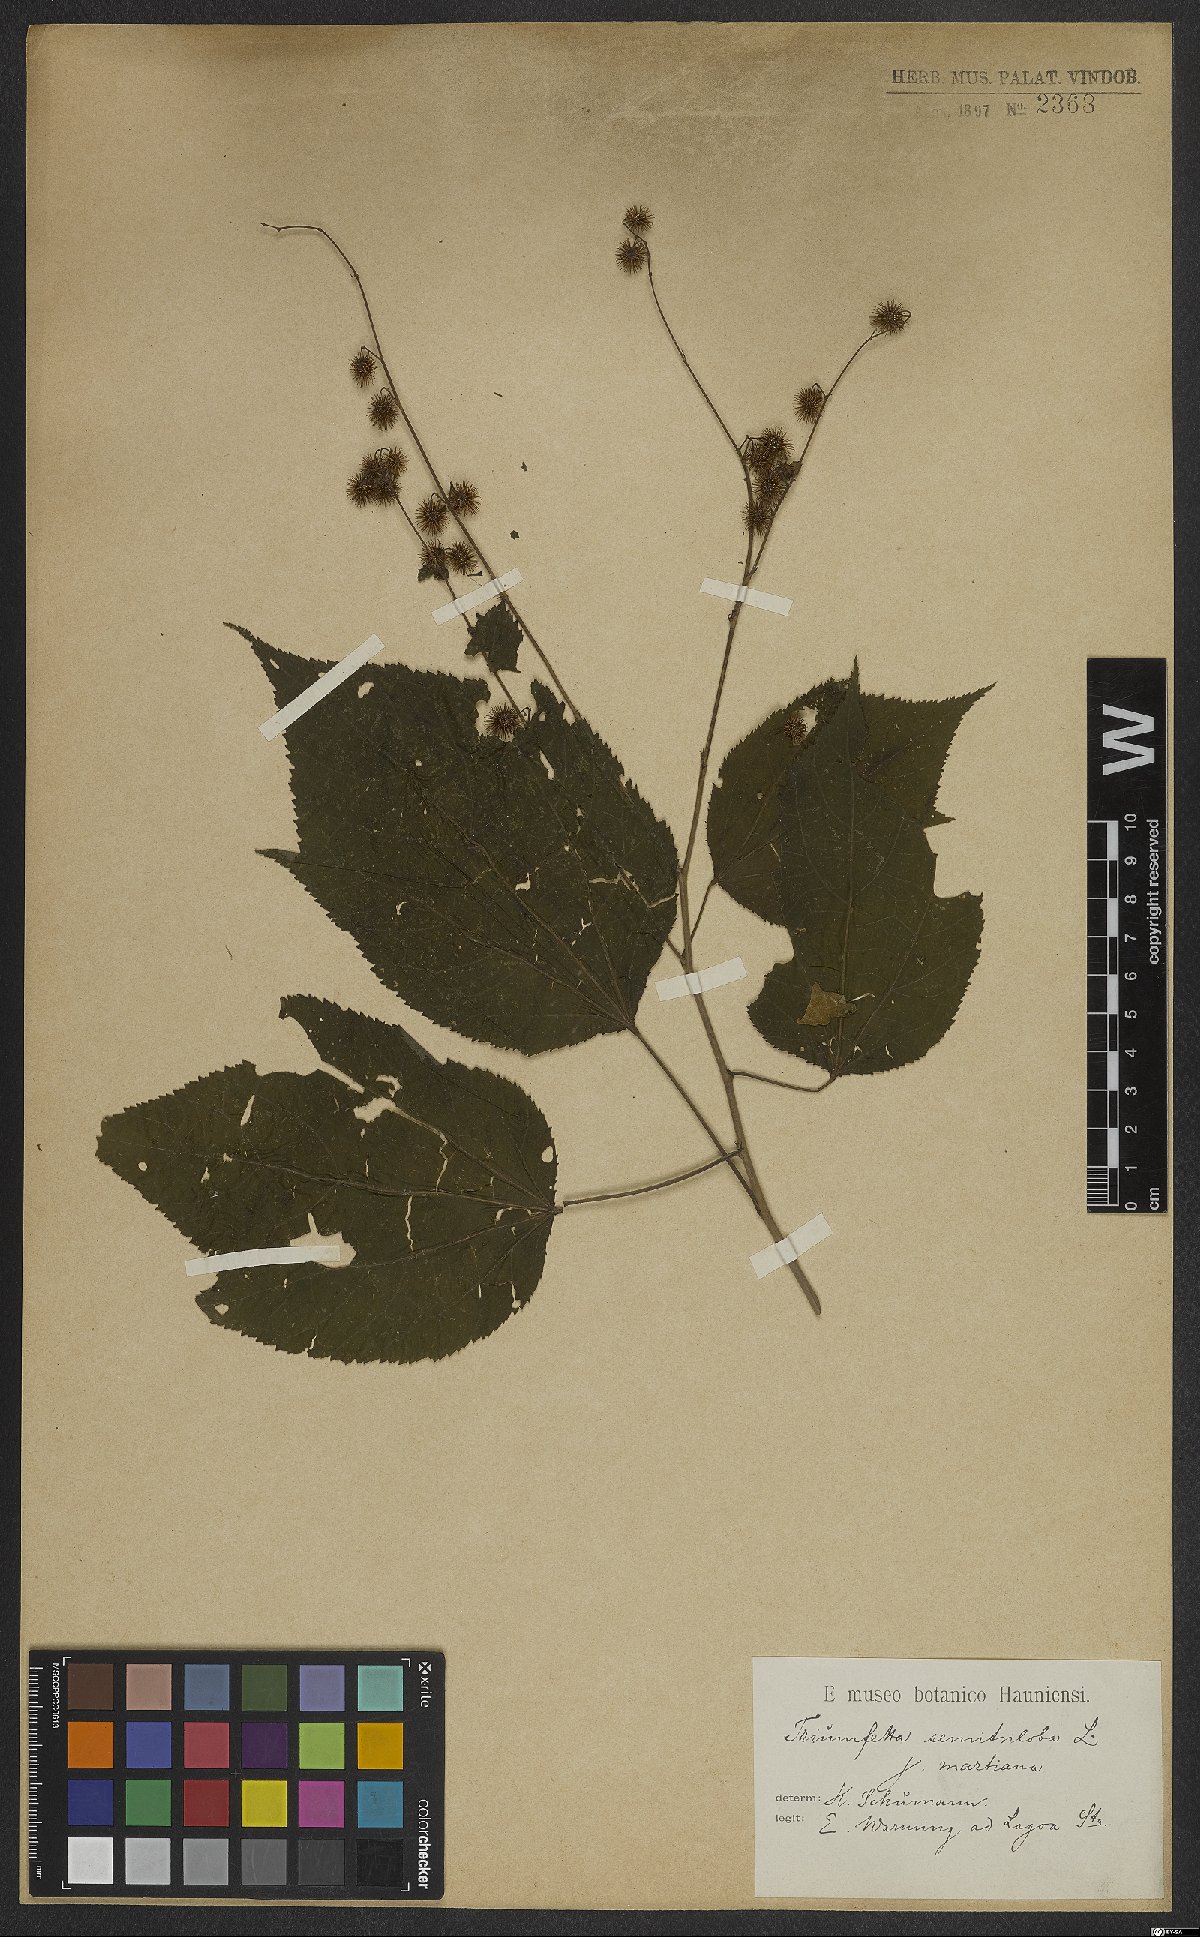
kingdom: Plantae
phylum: Tracheophyta
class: Magnoliopsida
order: Malvales
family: Malvaceae
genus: Triumfetta
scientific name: Triumfetta semitriloba
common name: Sacramento burbark
